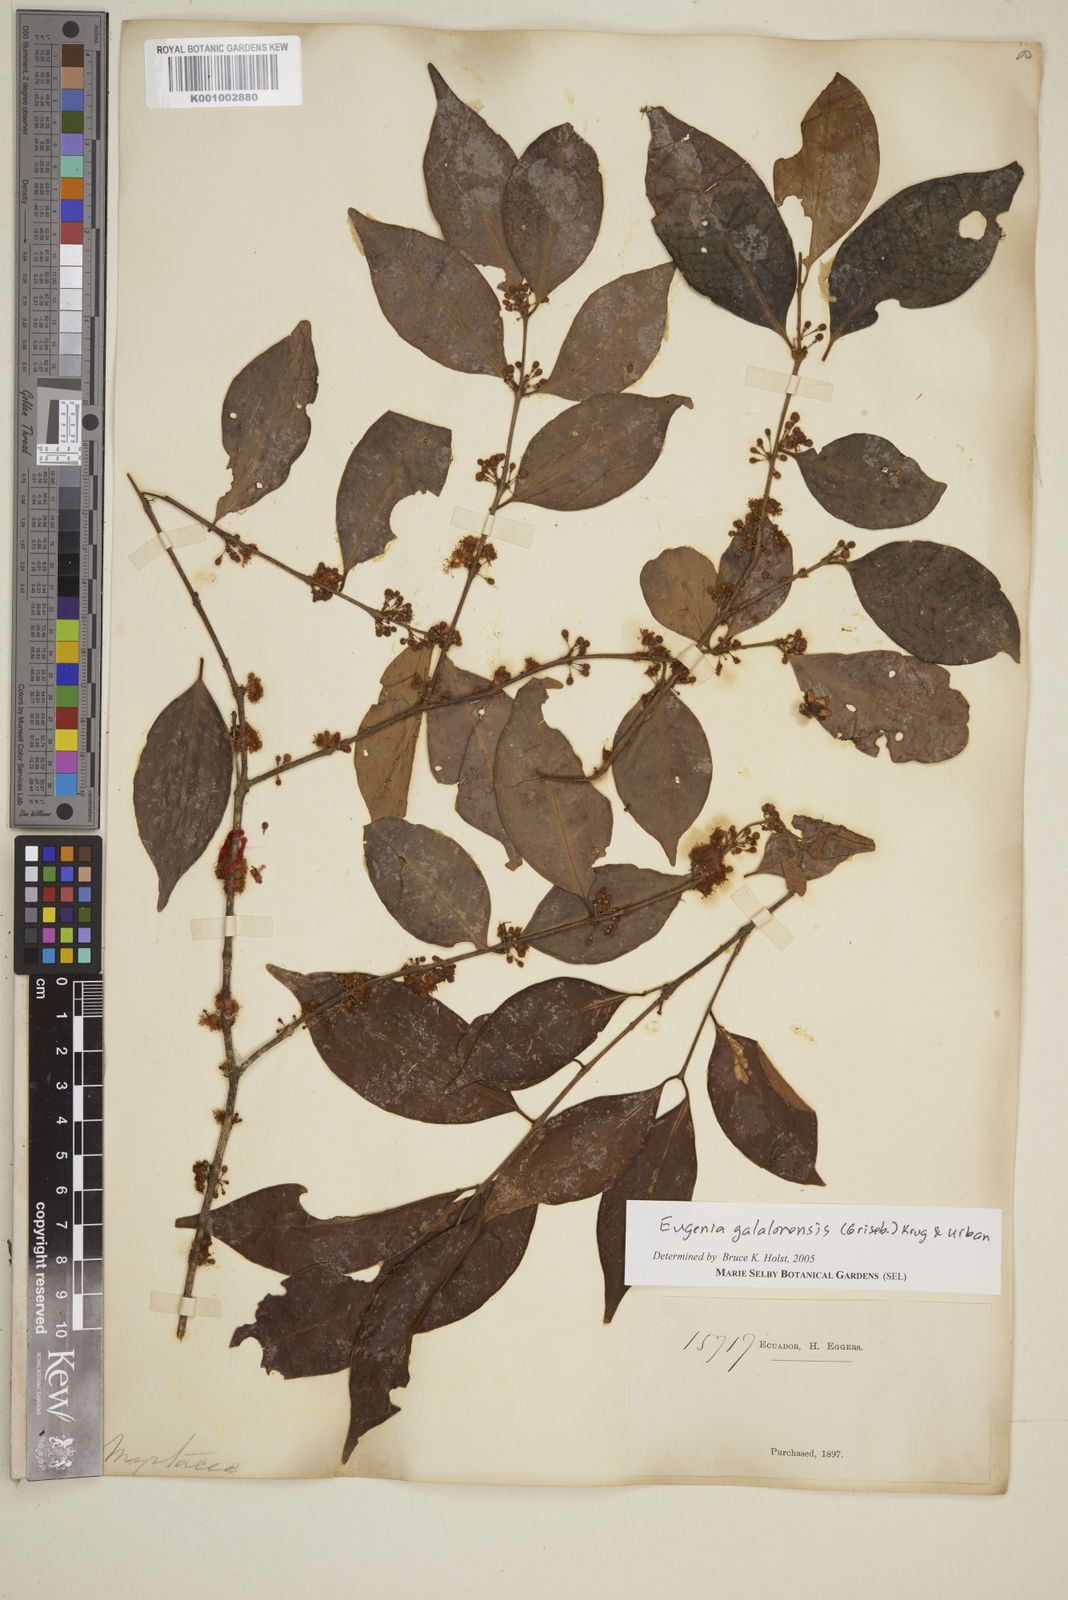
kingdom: Plantae
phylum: Tracheophyta
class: Magnoliopsida
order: Myrtales
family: Myrtaceae
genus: Eugenia
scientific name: Eugenia galalonensis
